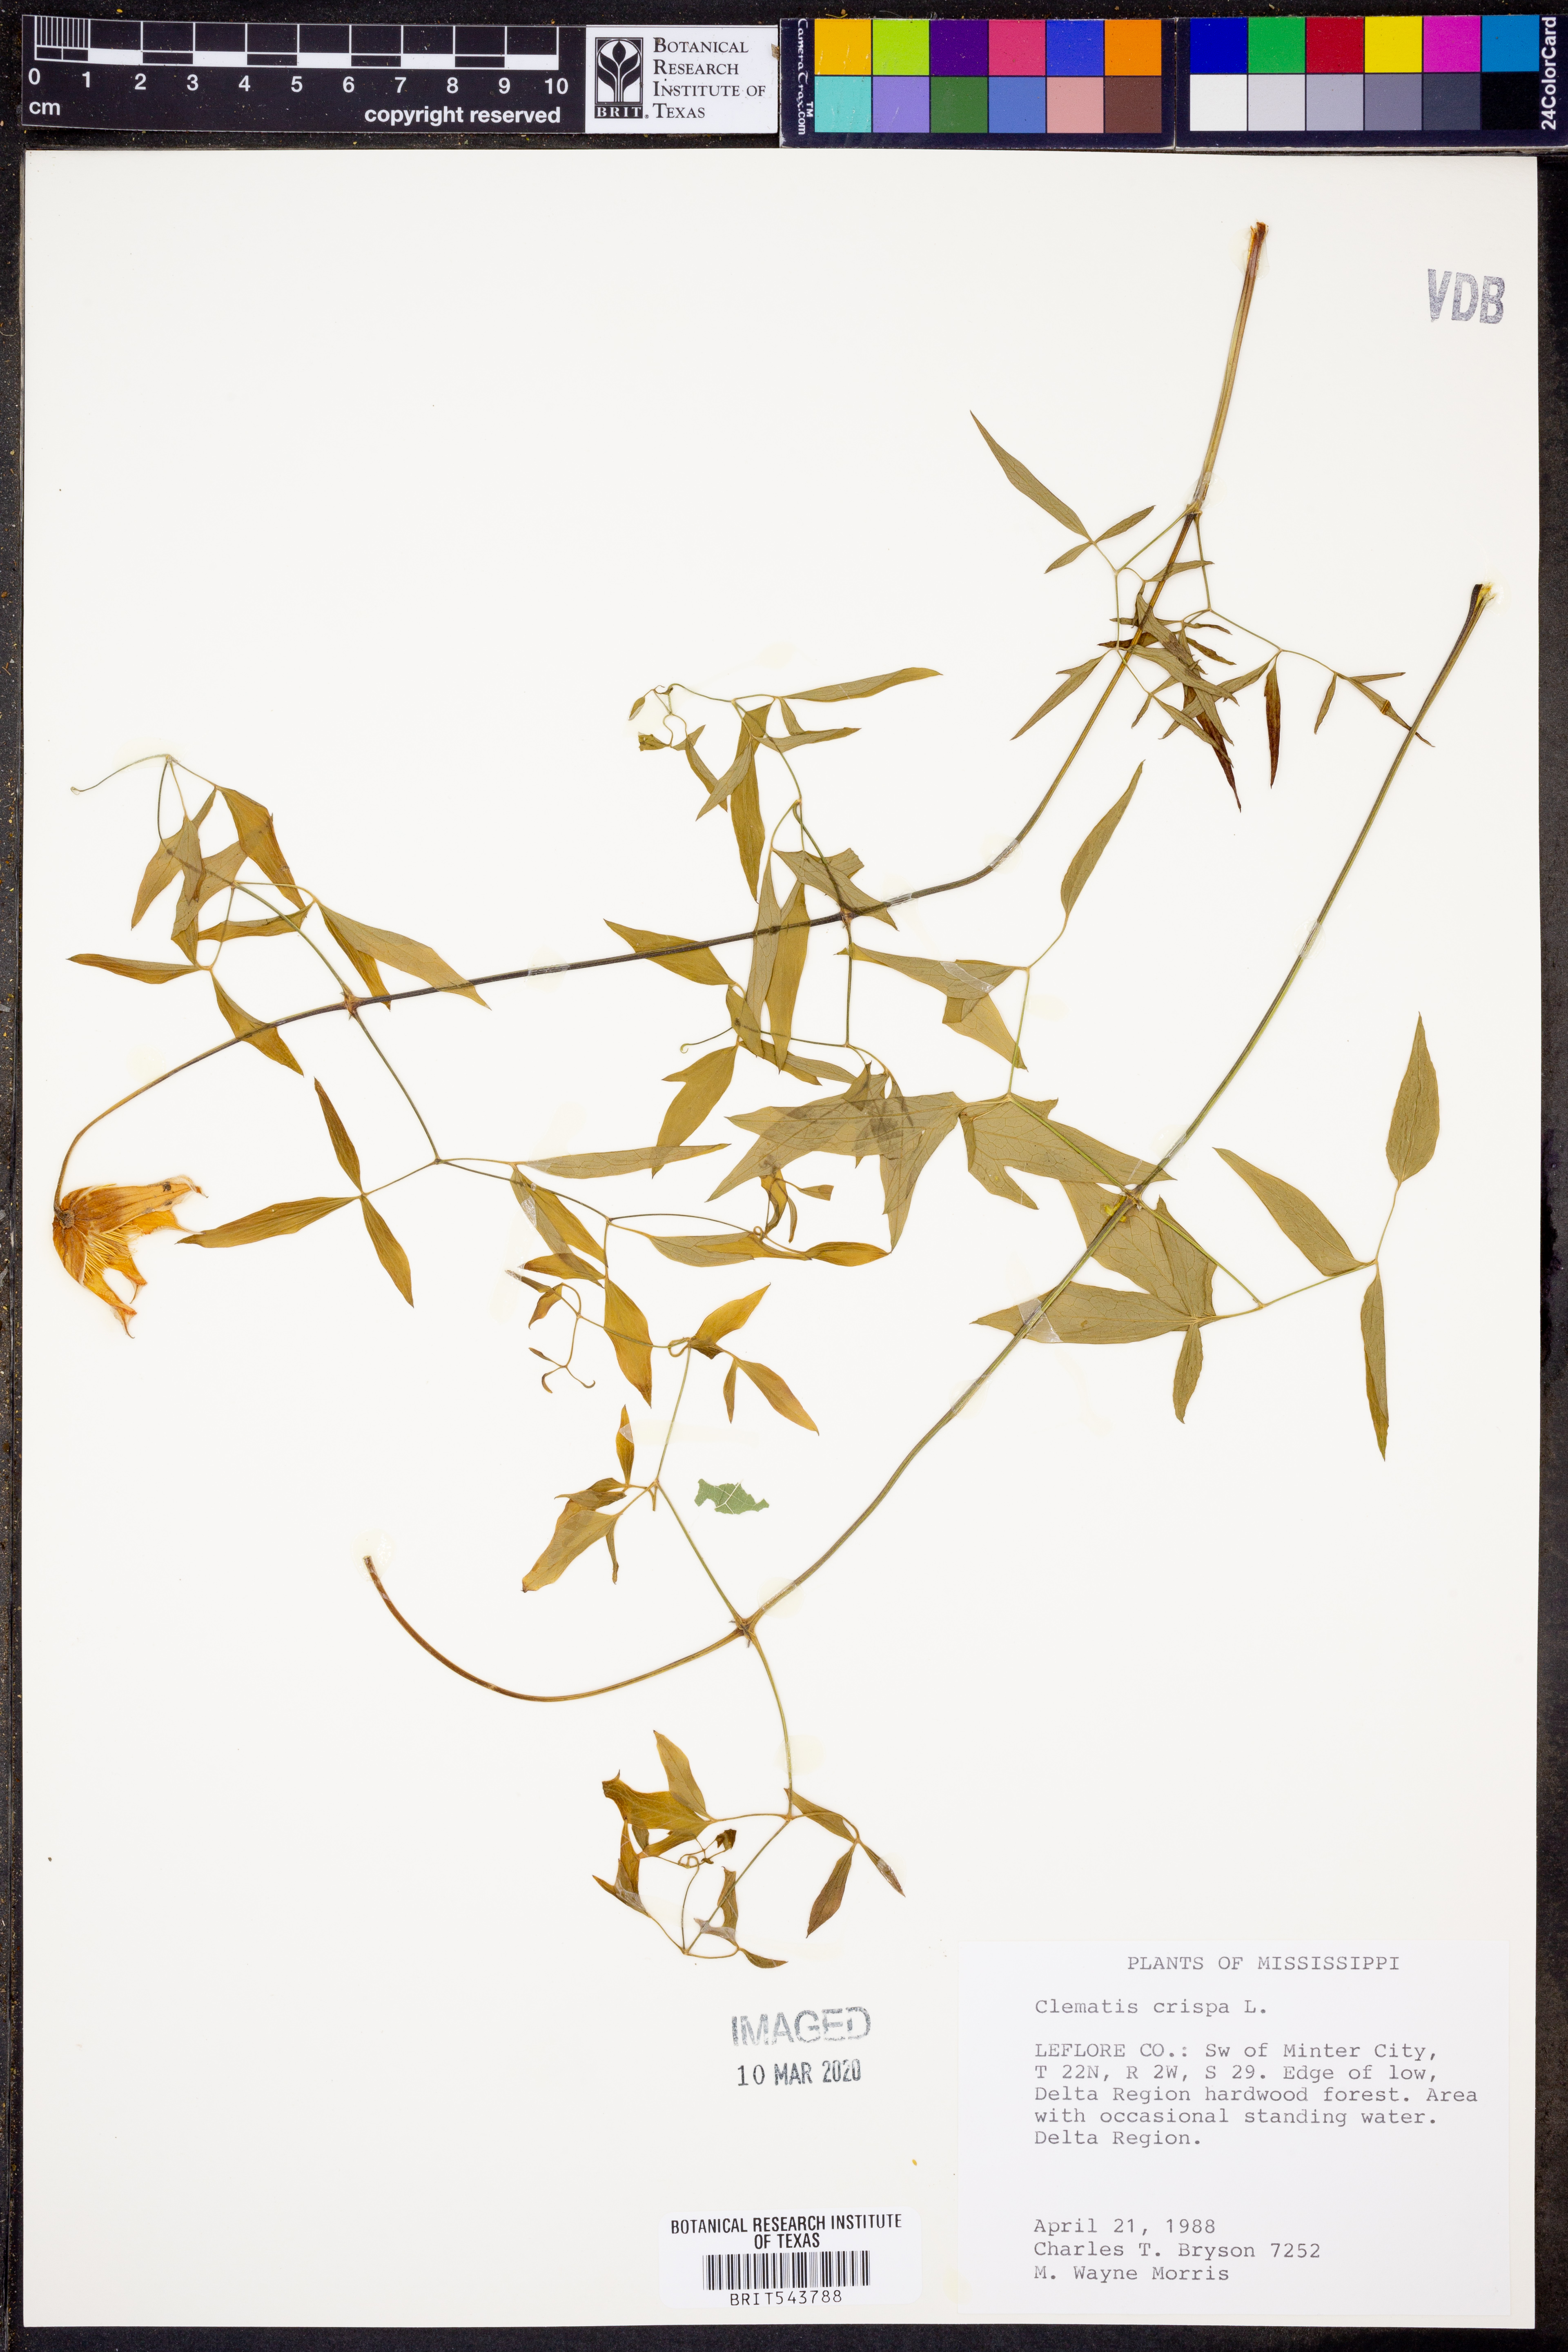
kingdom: Plantae
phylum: Tracheophyta
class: Magnoliopsida
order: Ranunculales
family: Ranunculaceae
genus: Clematis
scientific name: Clematis crispa
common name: Curly clematis
